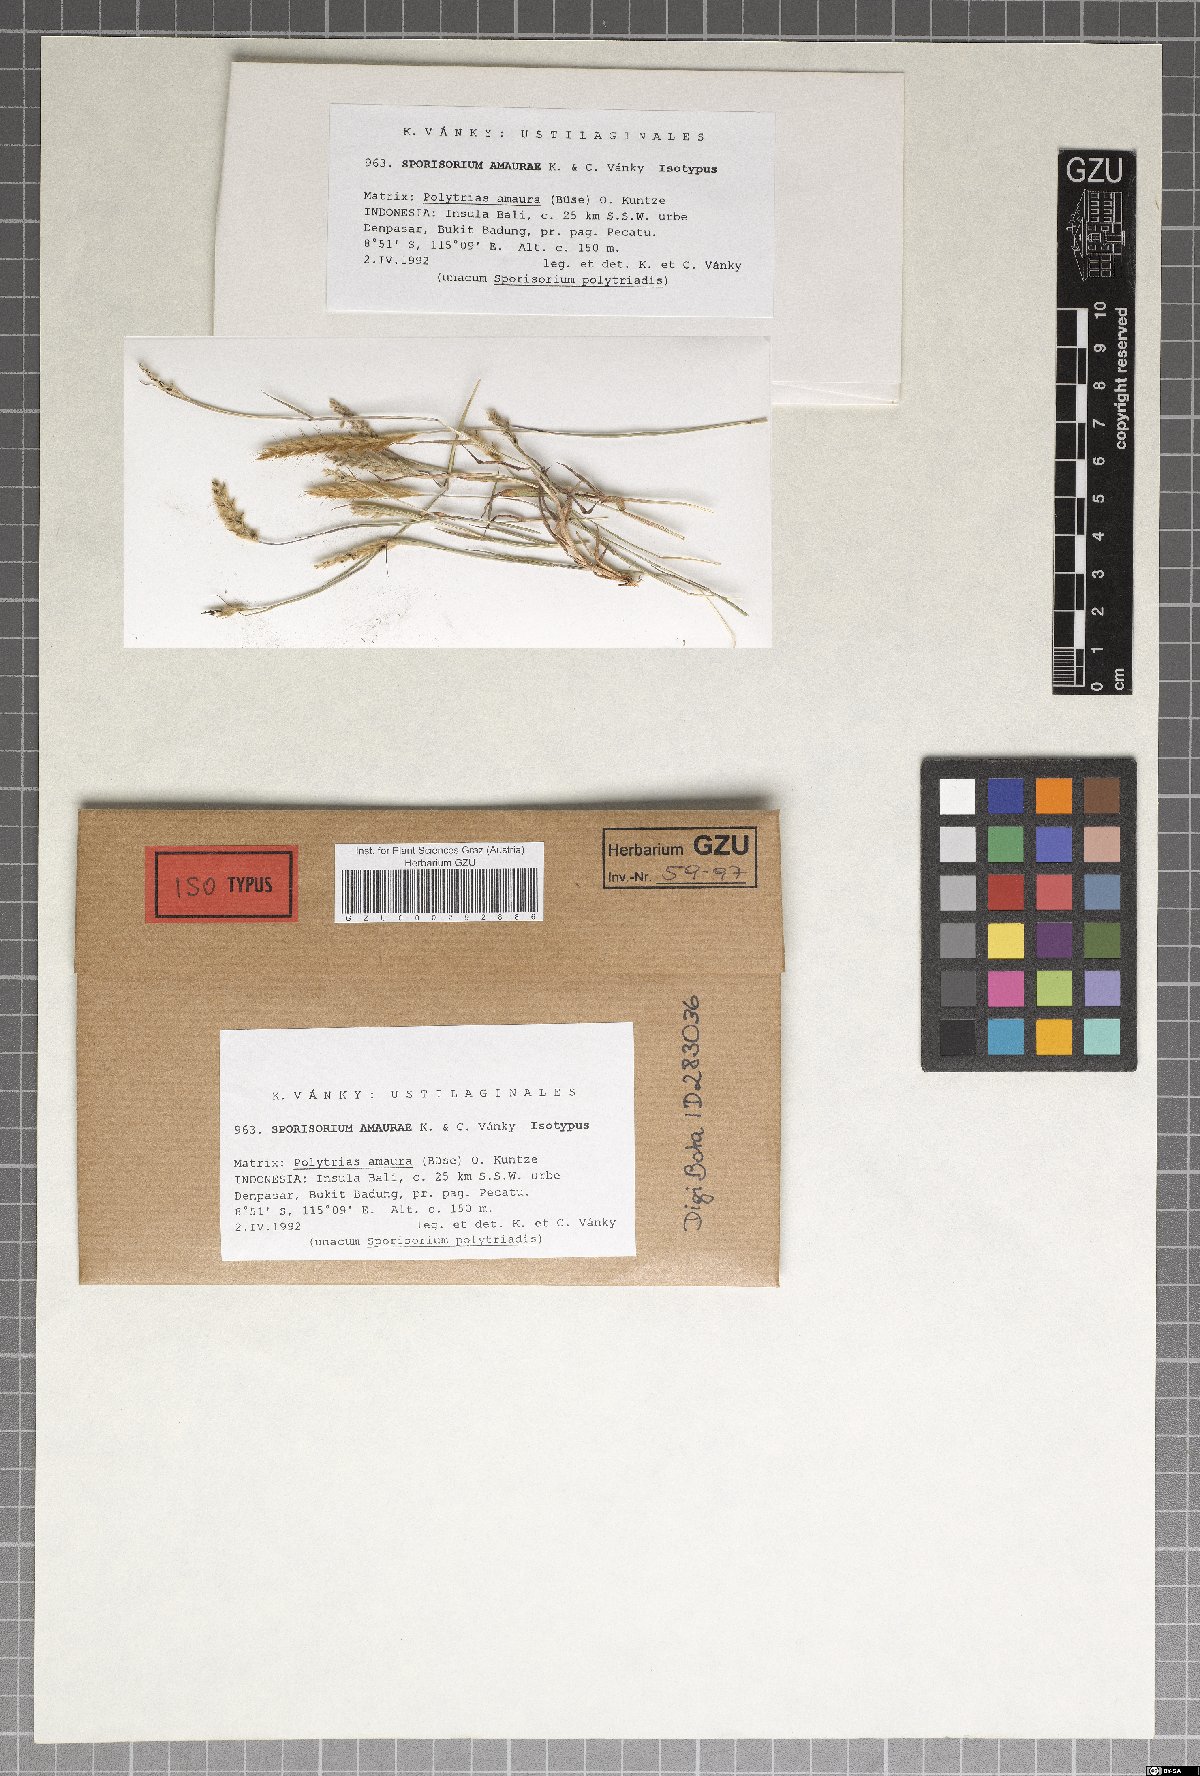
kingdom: Fungi
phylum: Basidiomycota
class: Ustilaginomycetes
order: Ustilaginales
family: Ustilaginaceae
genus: Sporisorium
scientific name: Sporisorium amaurae
